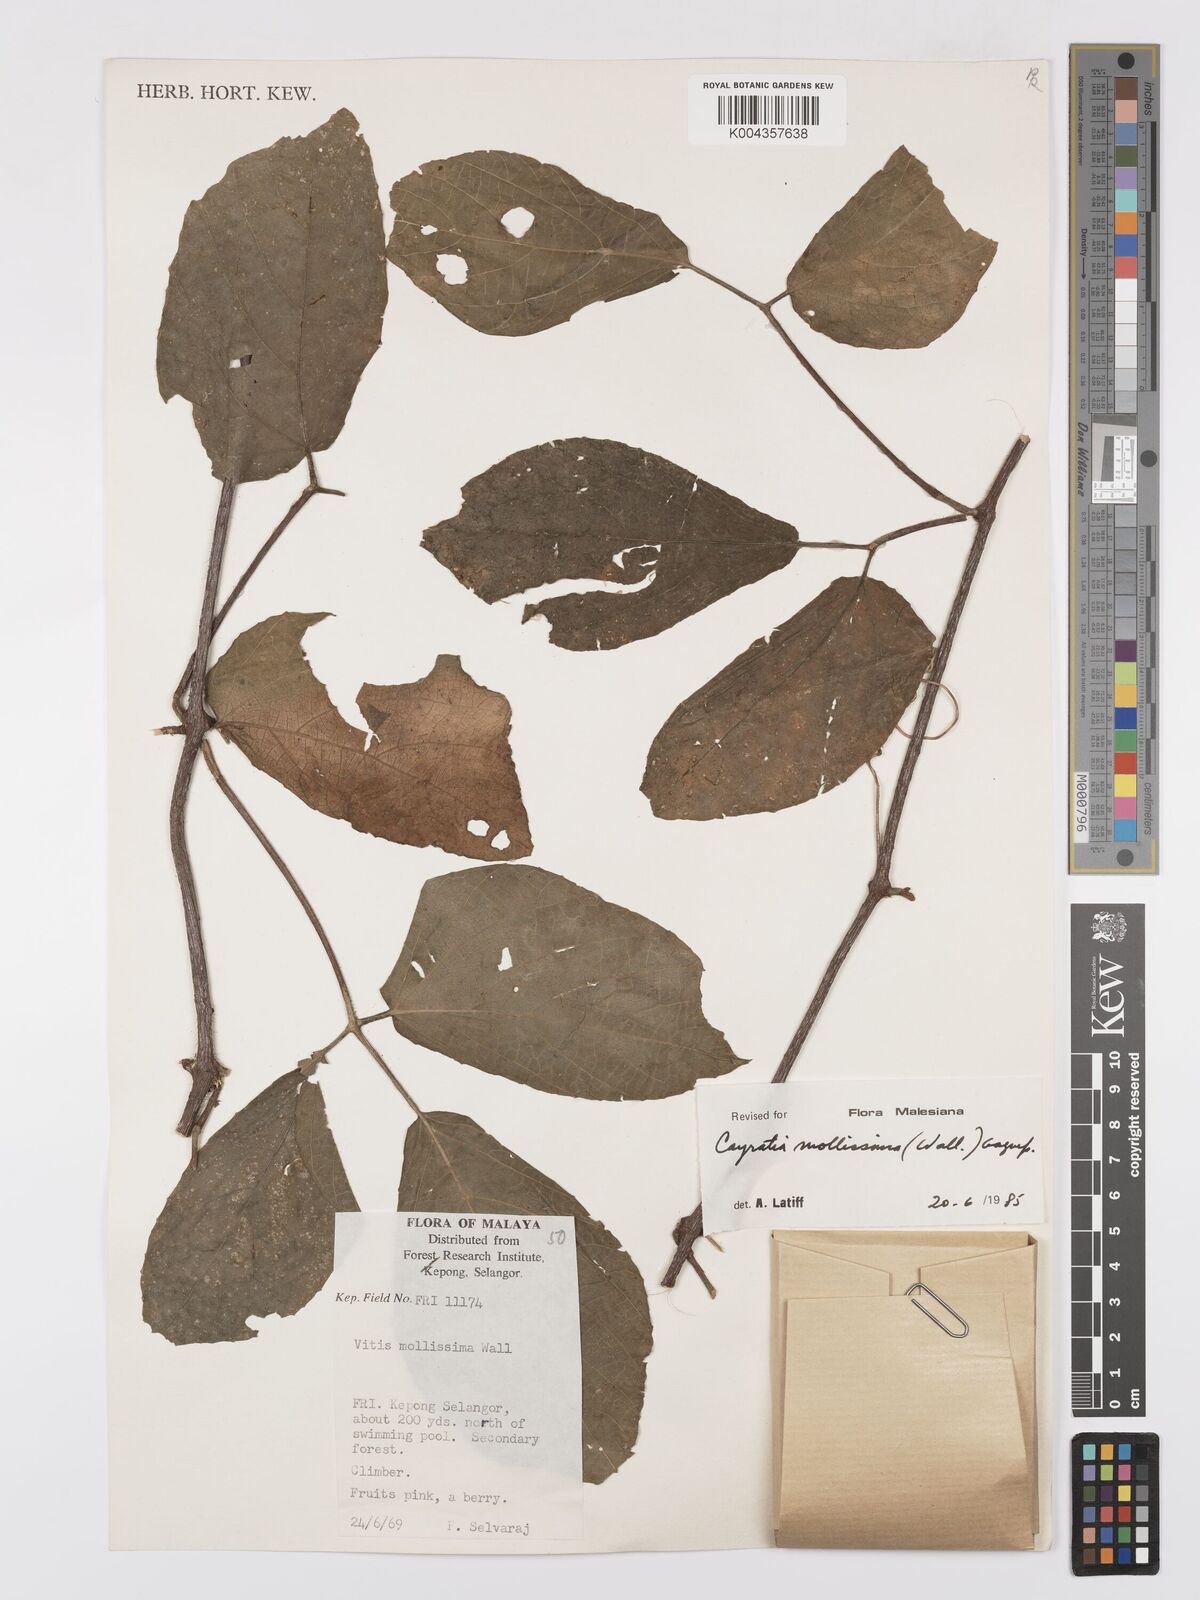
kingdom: Plantae
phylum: Tracheophyta
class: Magnoliopsida
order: Vitales
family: Vitaceae
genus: Cayratia
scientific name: Cayratia mollissima
